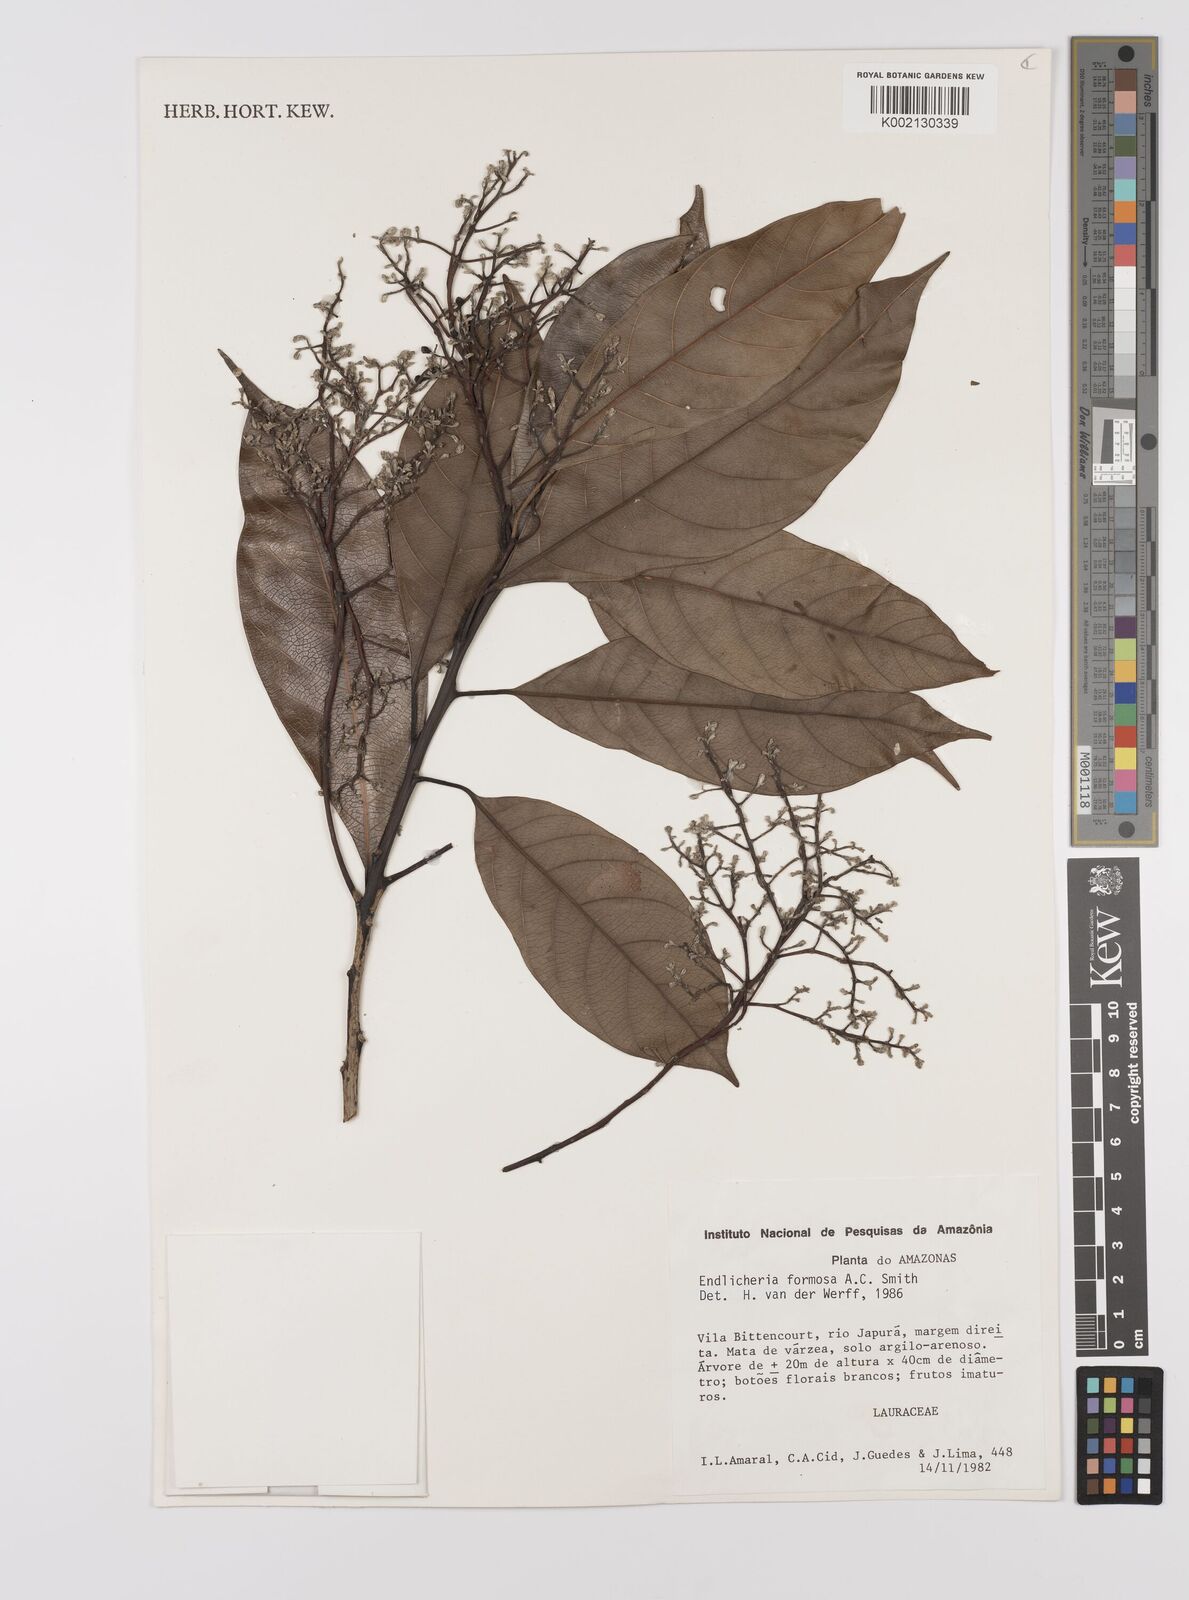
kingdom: Plantae
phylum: Tracheophyta
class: Magnoliopsida
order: Laurales
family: Lauraceae
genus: Endlicheria
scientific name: Endlicheria formosa
